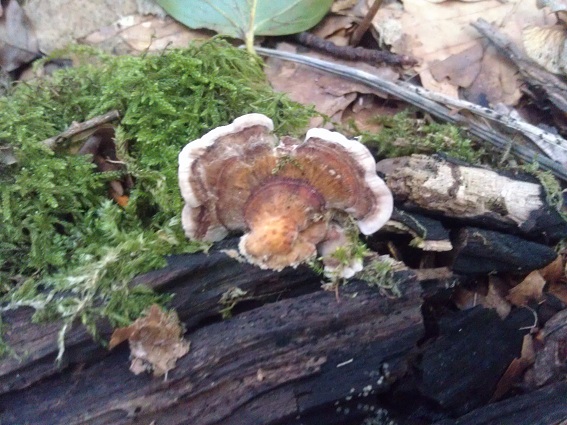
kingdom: Fungi
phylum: Basidiomycota
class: Agaricomycetes
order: Polyporales
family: Polyporaceae
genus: Trametes
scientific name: Trametes versicolor
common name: broget læderporesvamp
